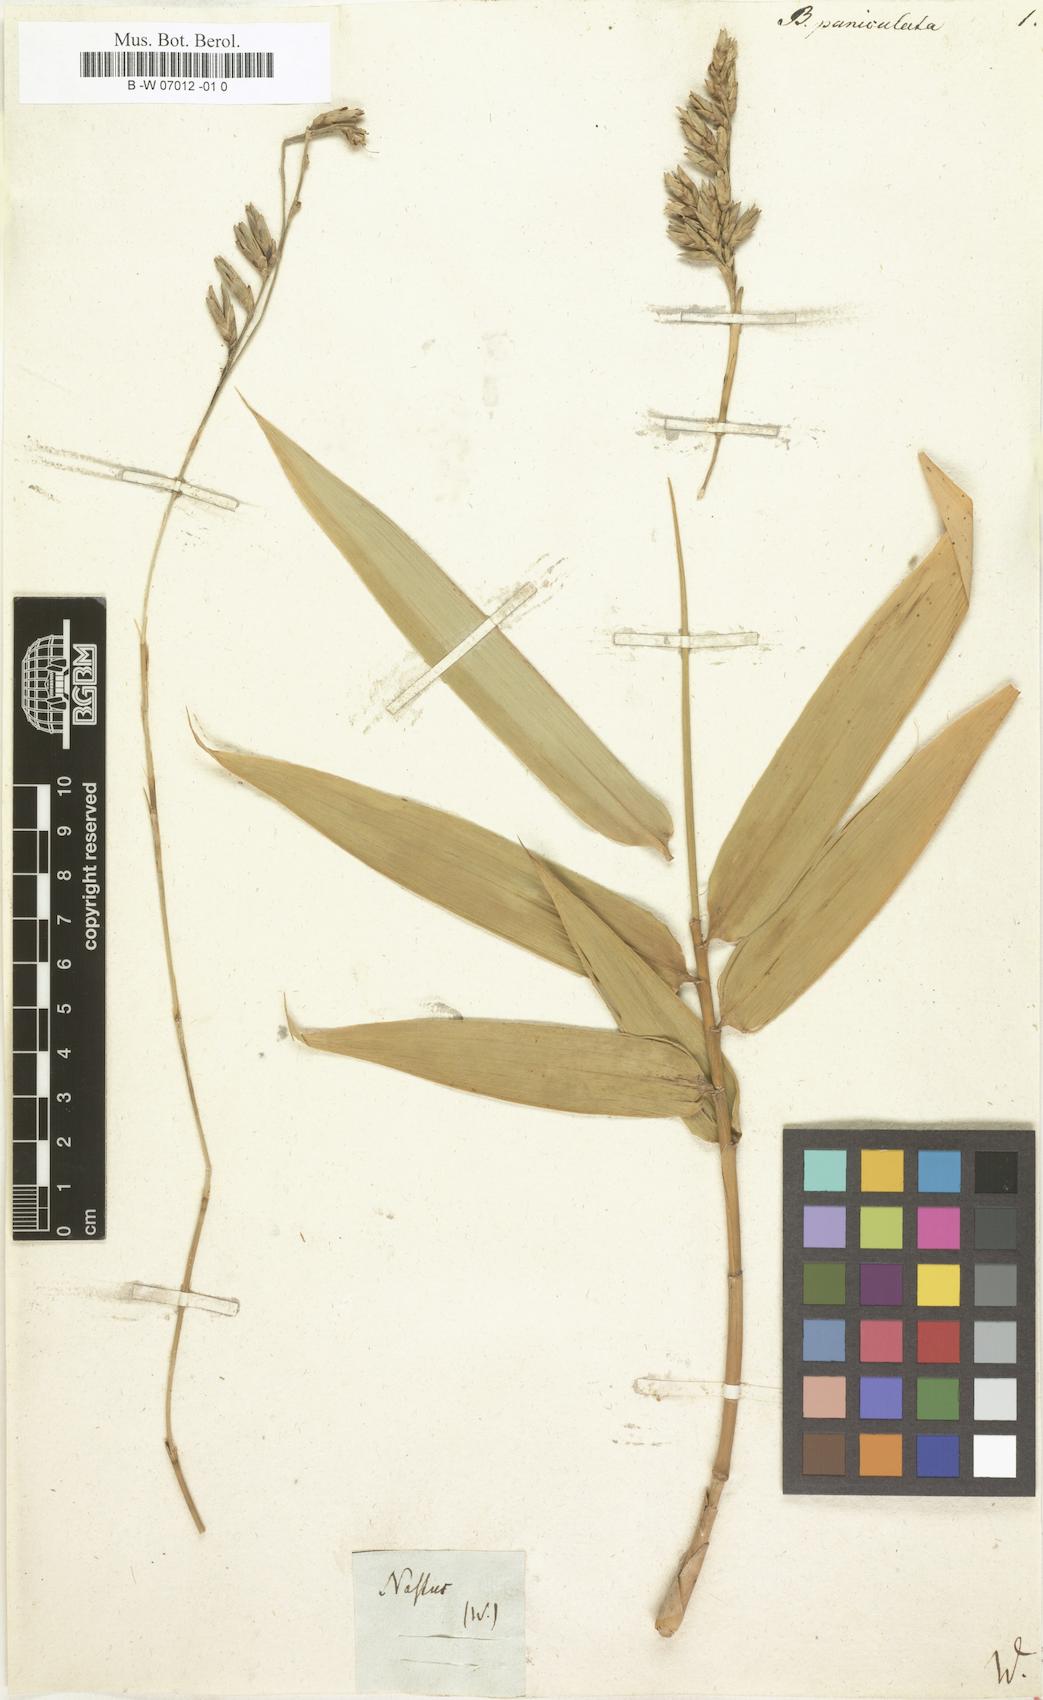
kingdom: Plantae
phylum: Tracheophyta
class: Liliopsida
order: Poales
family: Poaceae
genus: Guadua
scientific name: Guadua paniculata
